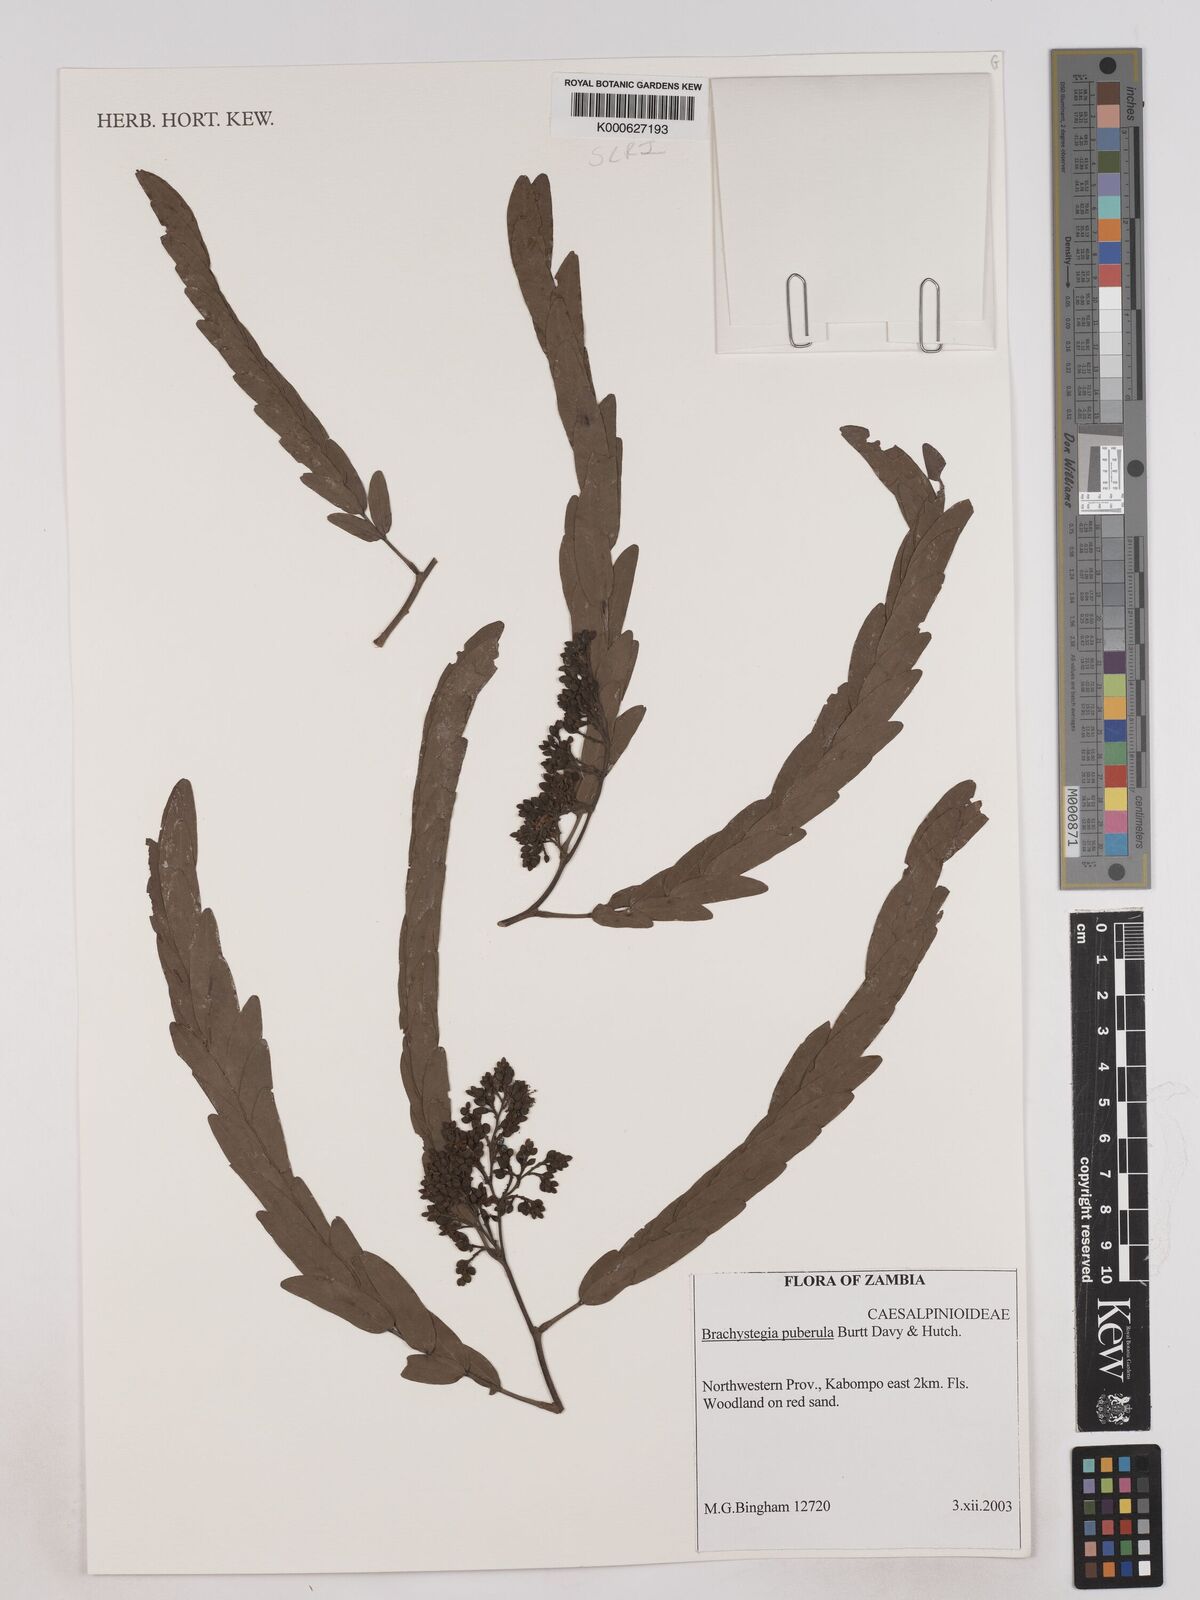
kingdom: Plantae
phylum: Tracheophyta
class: Magnoliopsida
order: Fabales
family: Fabaceae
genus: Brachystegia
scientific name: Brachystegia puberula
